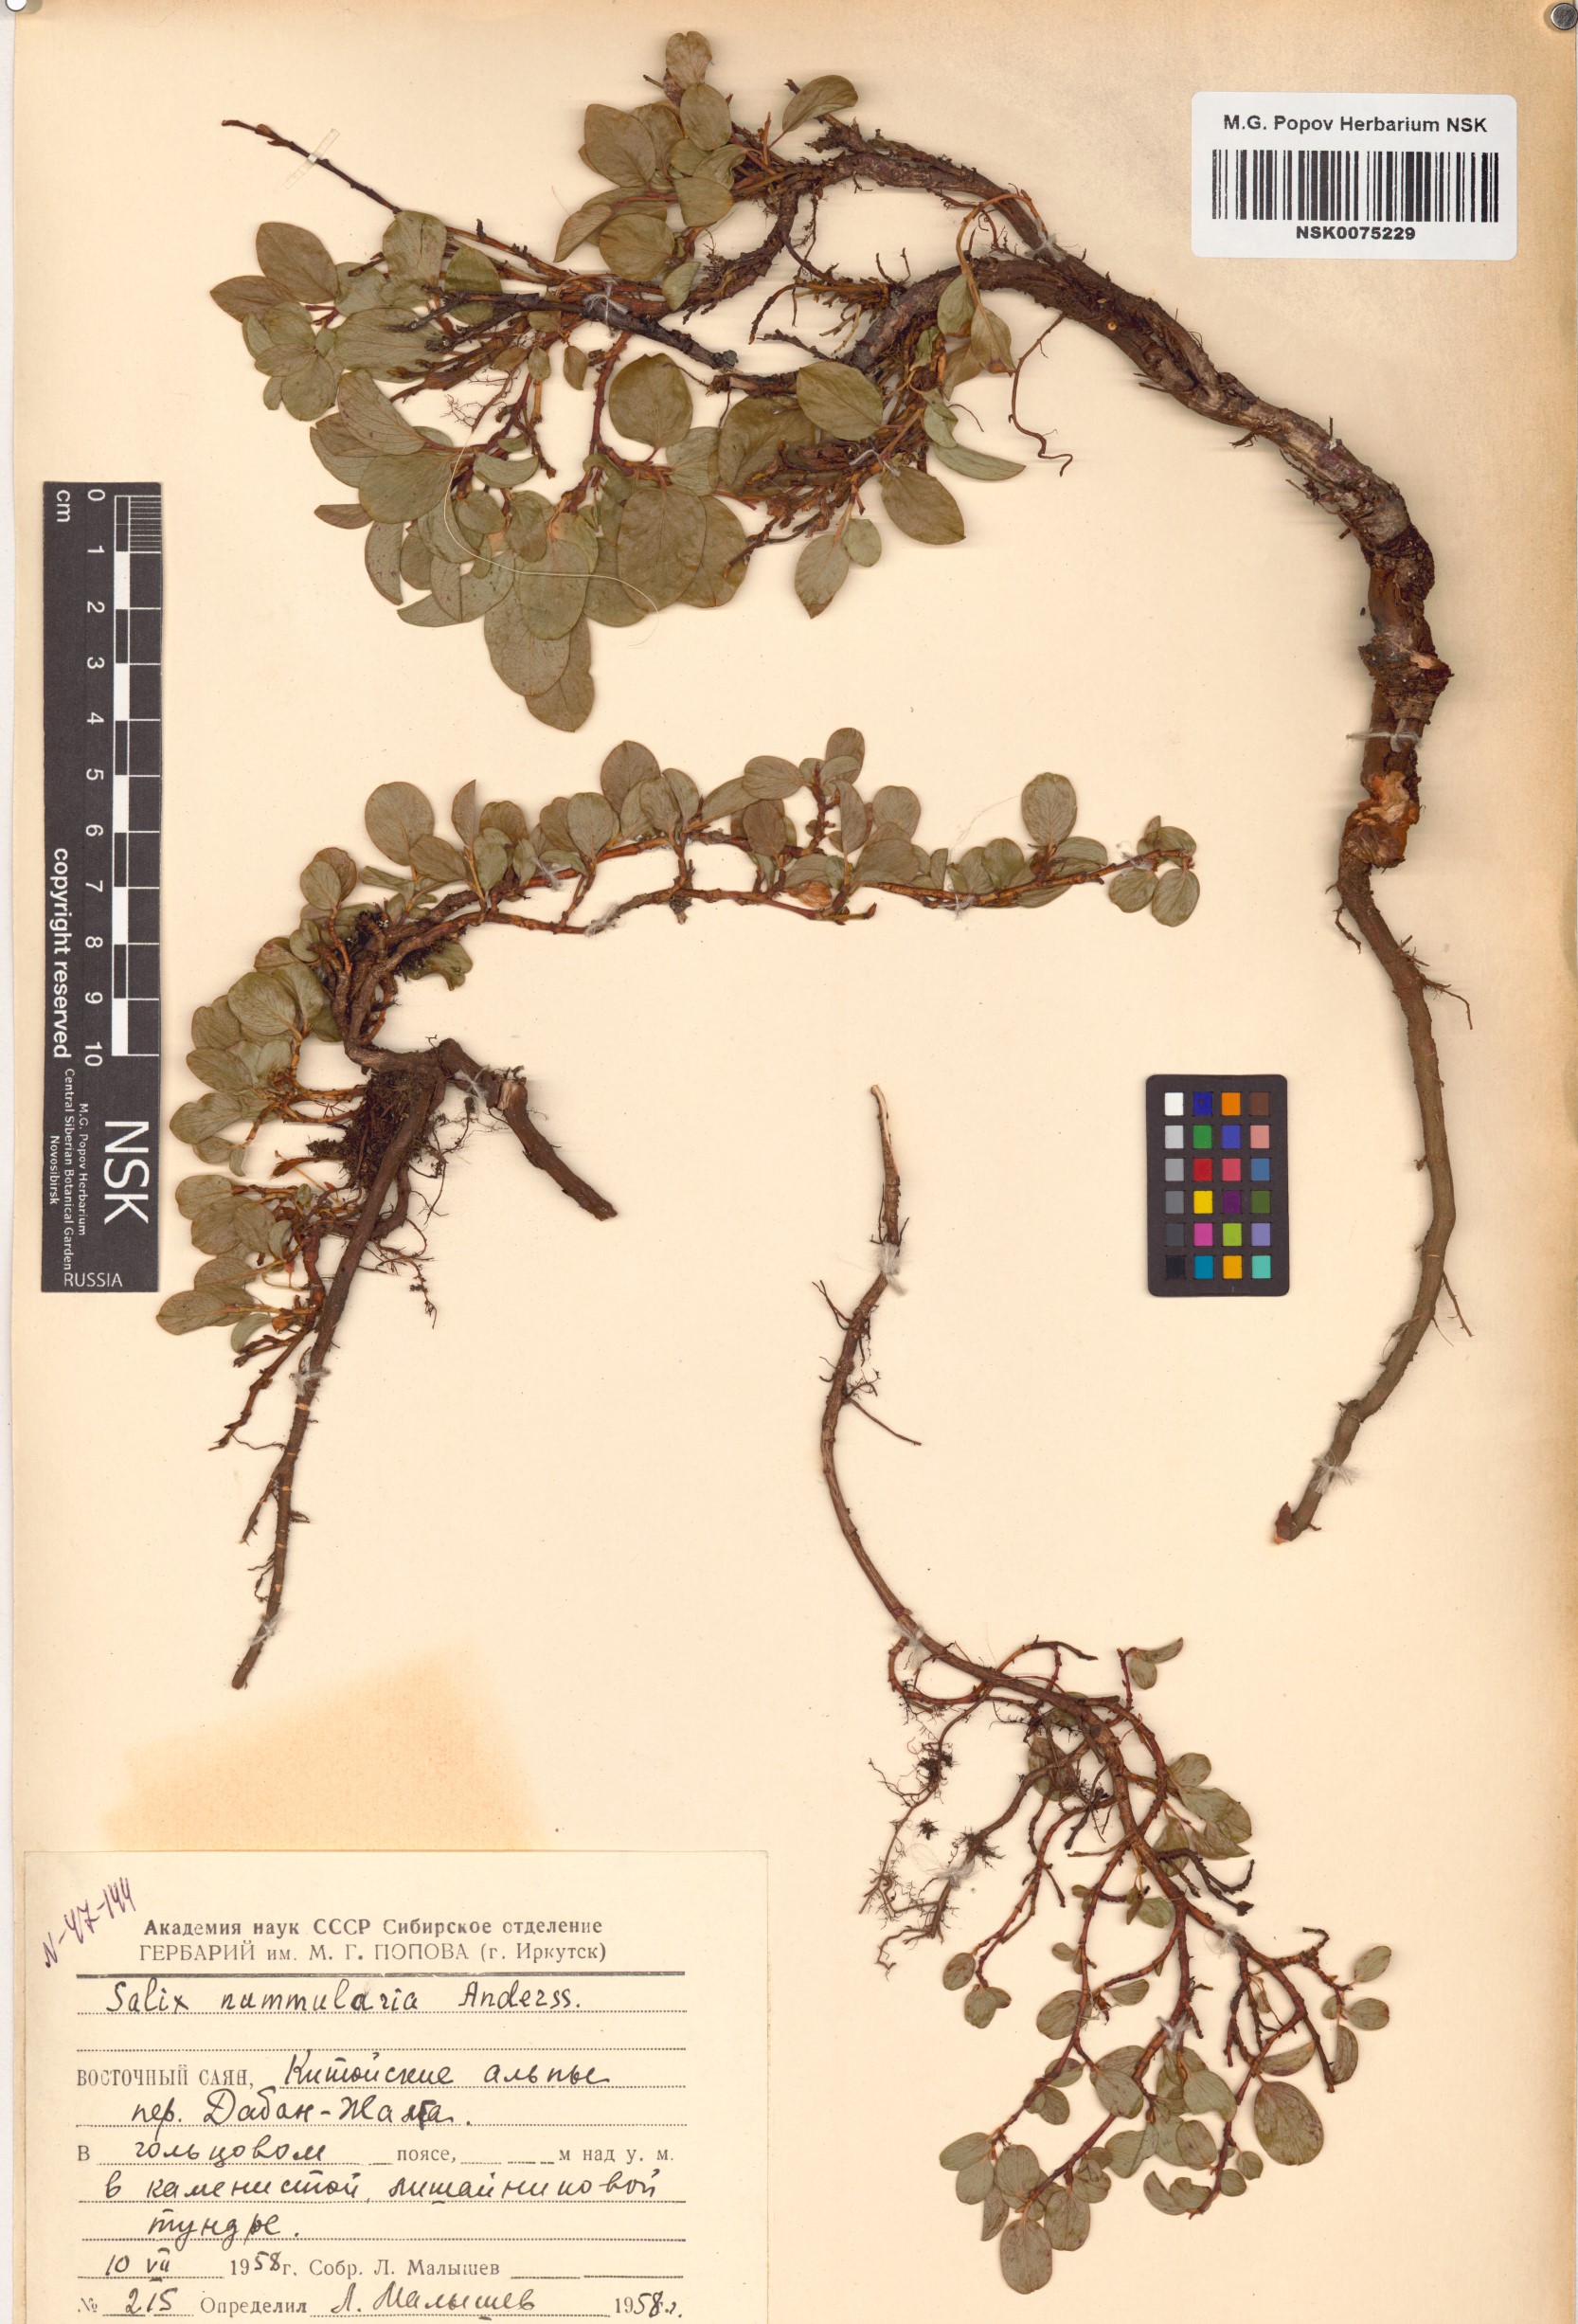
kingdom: Plantae
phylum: Tracheophyta
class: Magnoliopsida
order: Malpighiales
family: Salicaceae
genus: Salix
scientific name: Salix nummularia
